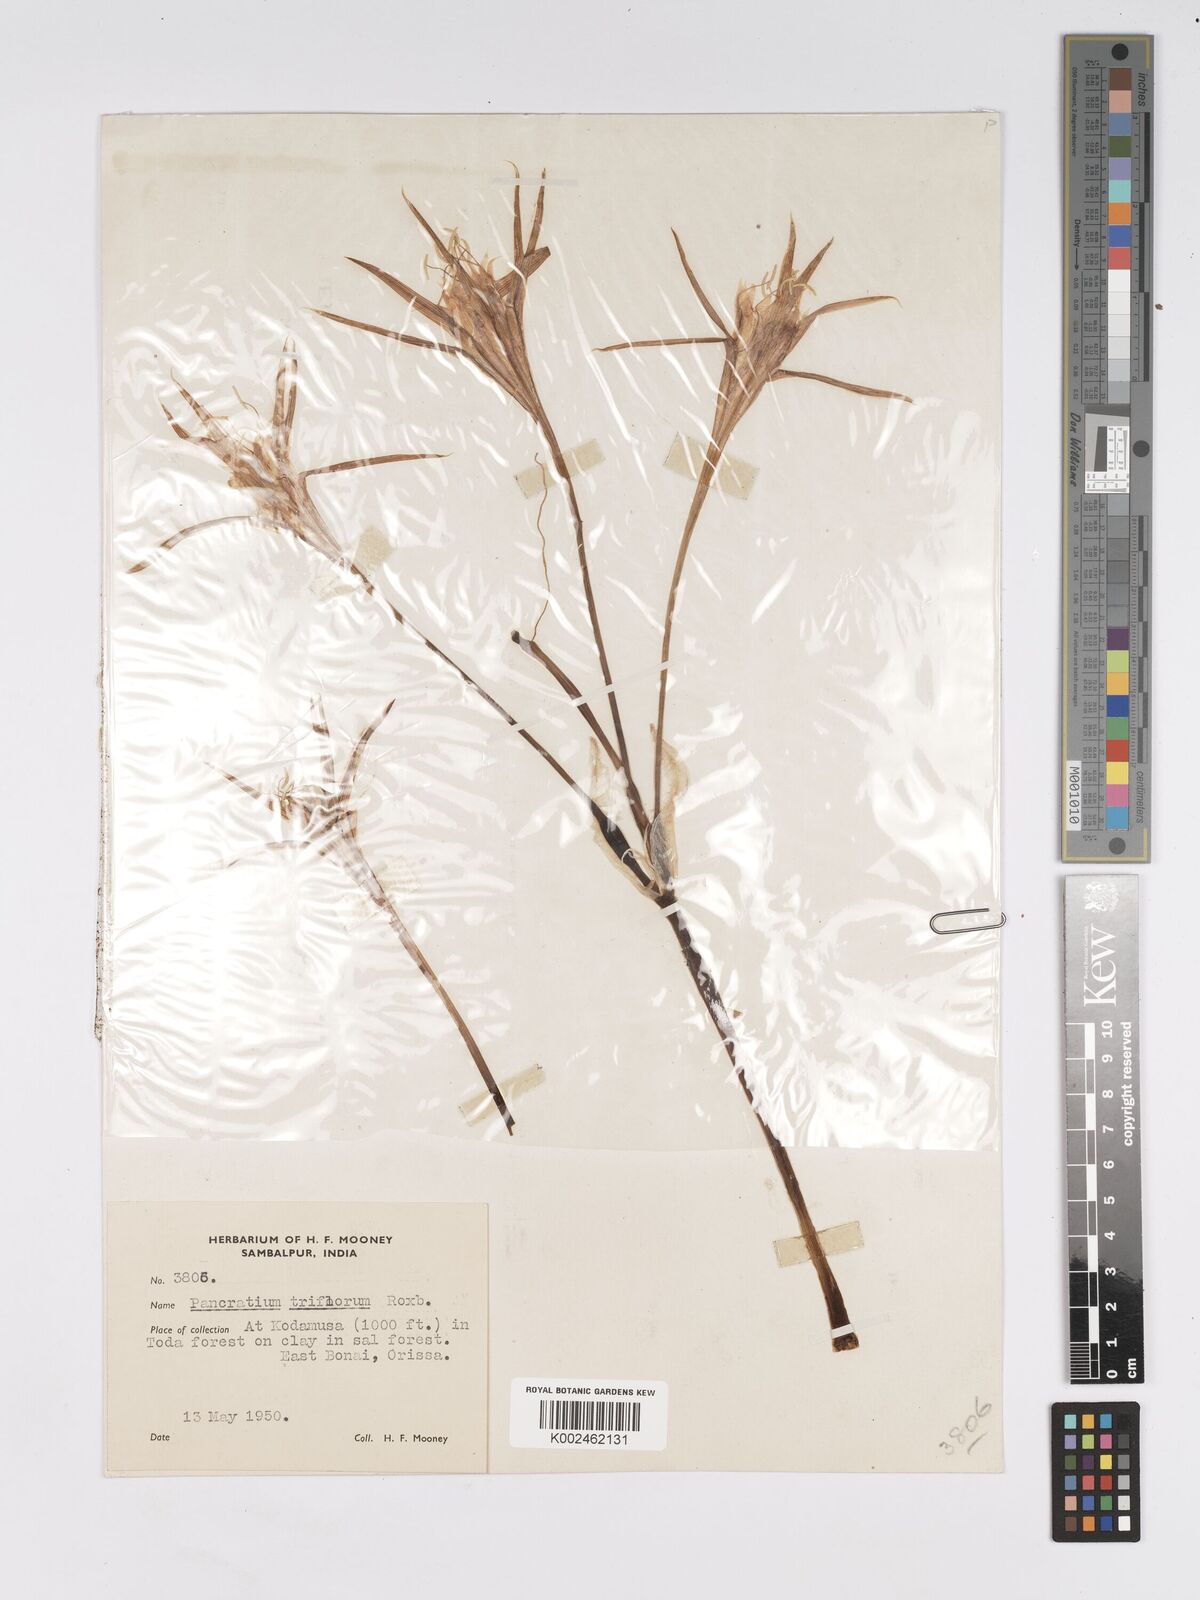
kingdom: Plantae
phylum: Tracheophyta
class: Liliopsida
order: Asparagales
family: Amaryllidaceae
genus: Pancratium
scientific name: Pancratium verecundum
